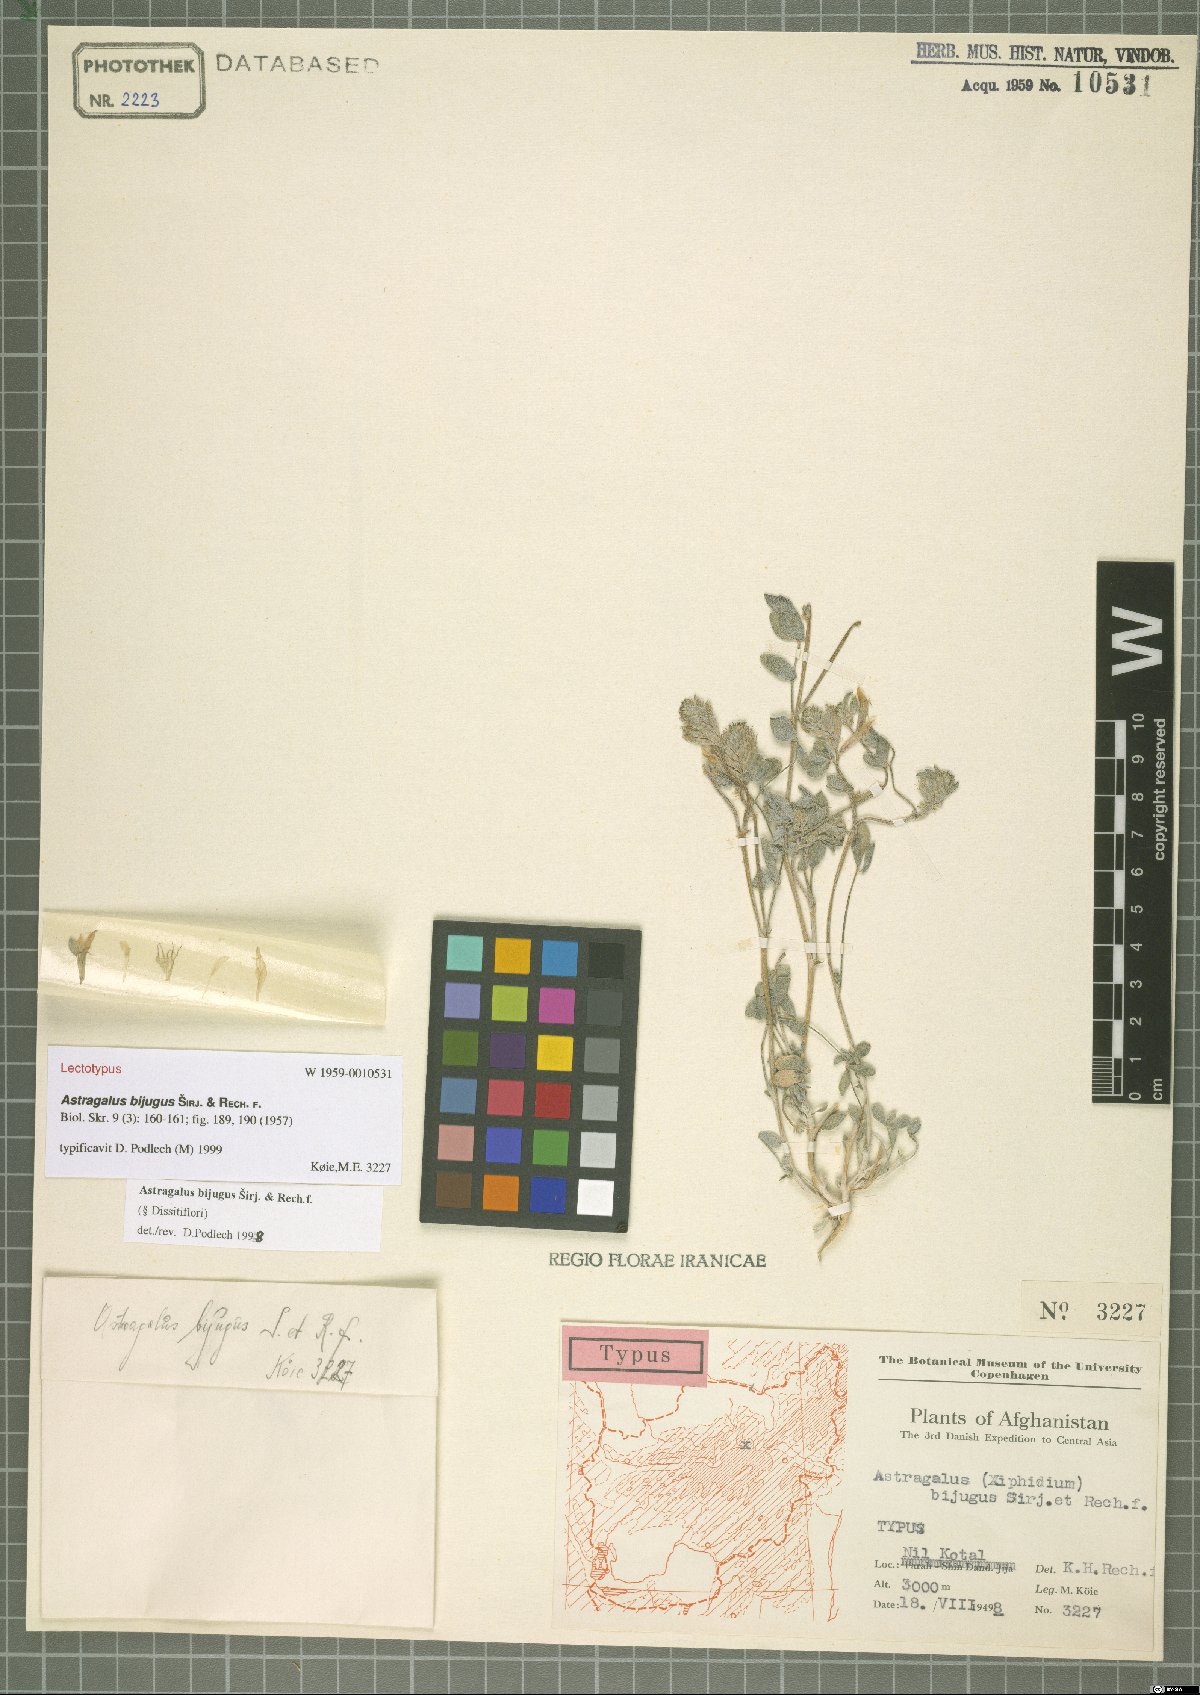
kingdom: Plantae
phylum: Tracheophyta
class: Magnoliopsida
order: Fabales
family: Fabaceae
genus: Astragalus
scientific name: Astragalus bijugus
